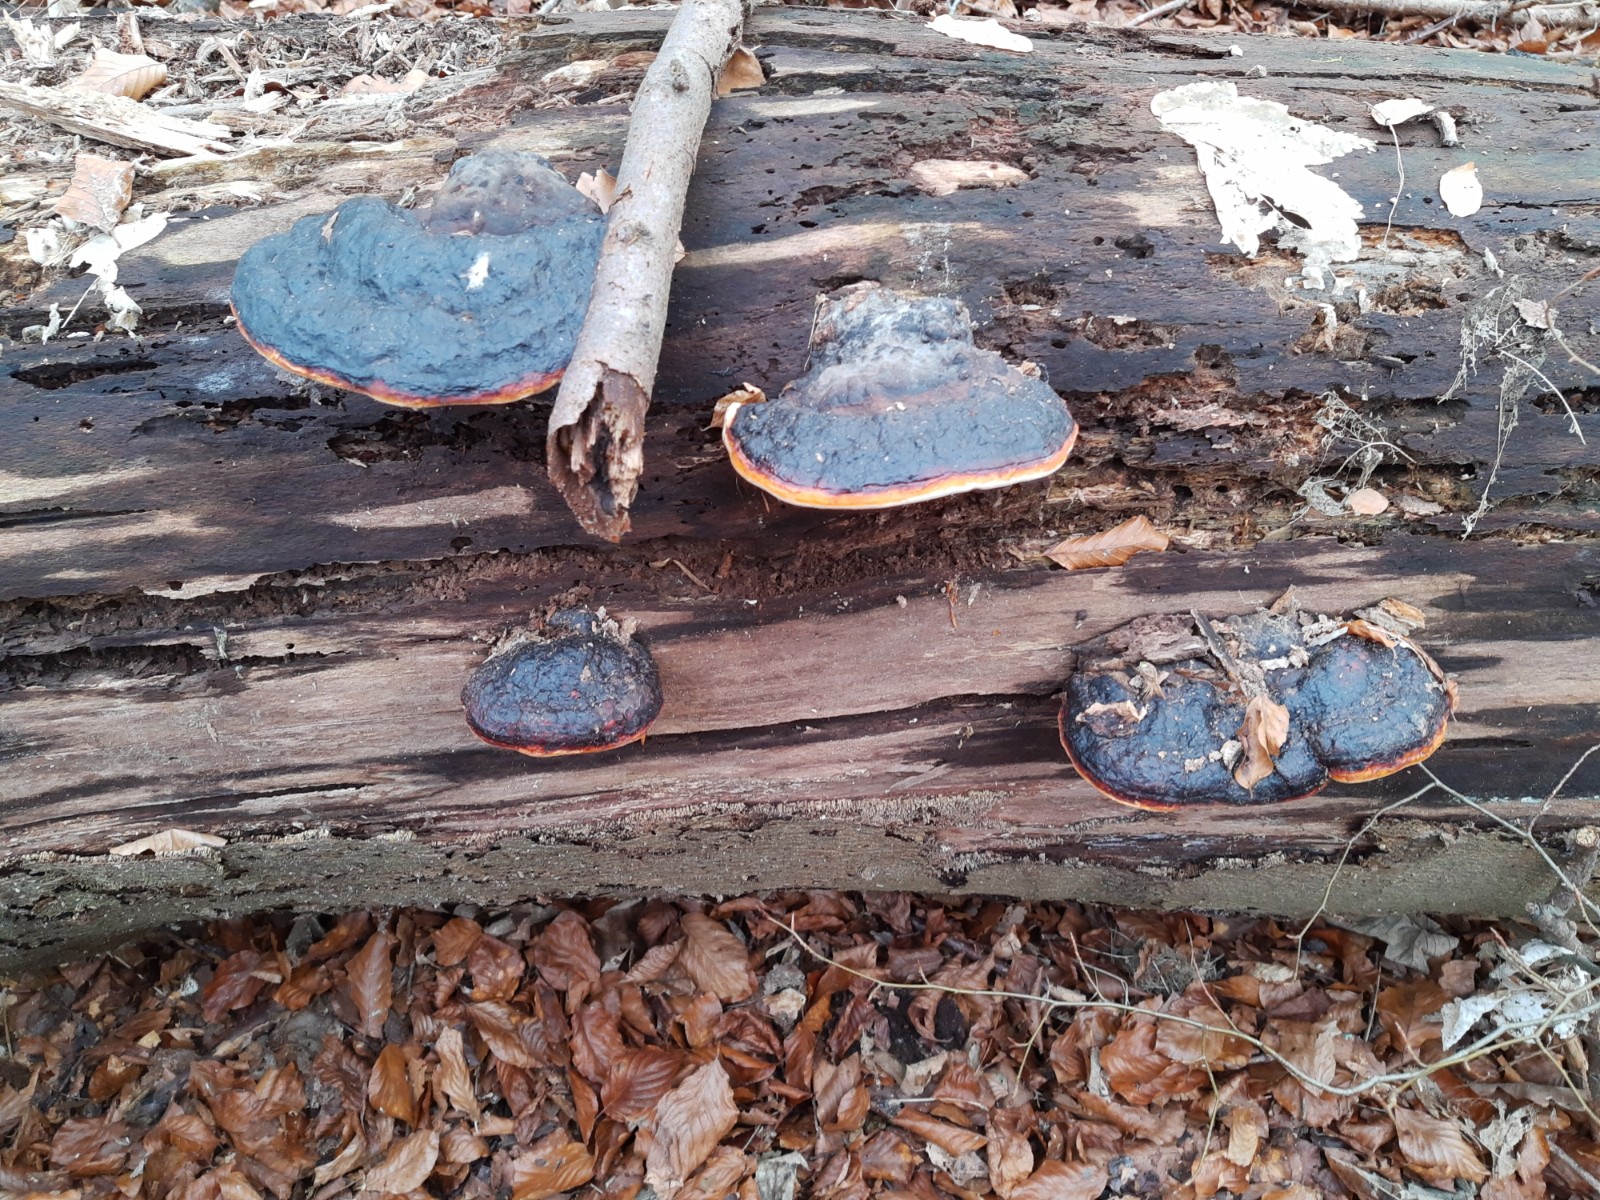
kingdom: Fungi
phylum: Basidiomycota
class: Agaricomycetes
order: Polyporales
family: Fomitopsidaceae
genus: Fomitopsis
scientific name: Fomitopsis pinicola
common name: randbæltet hovporesvamp
